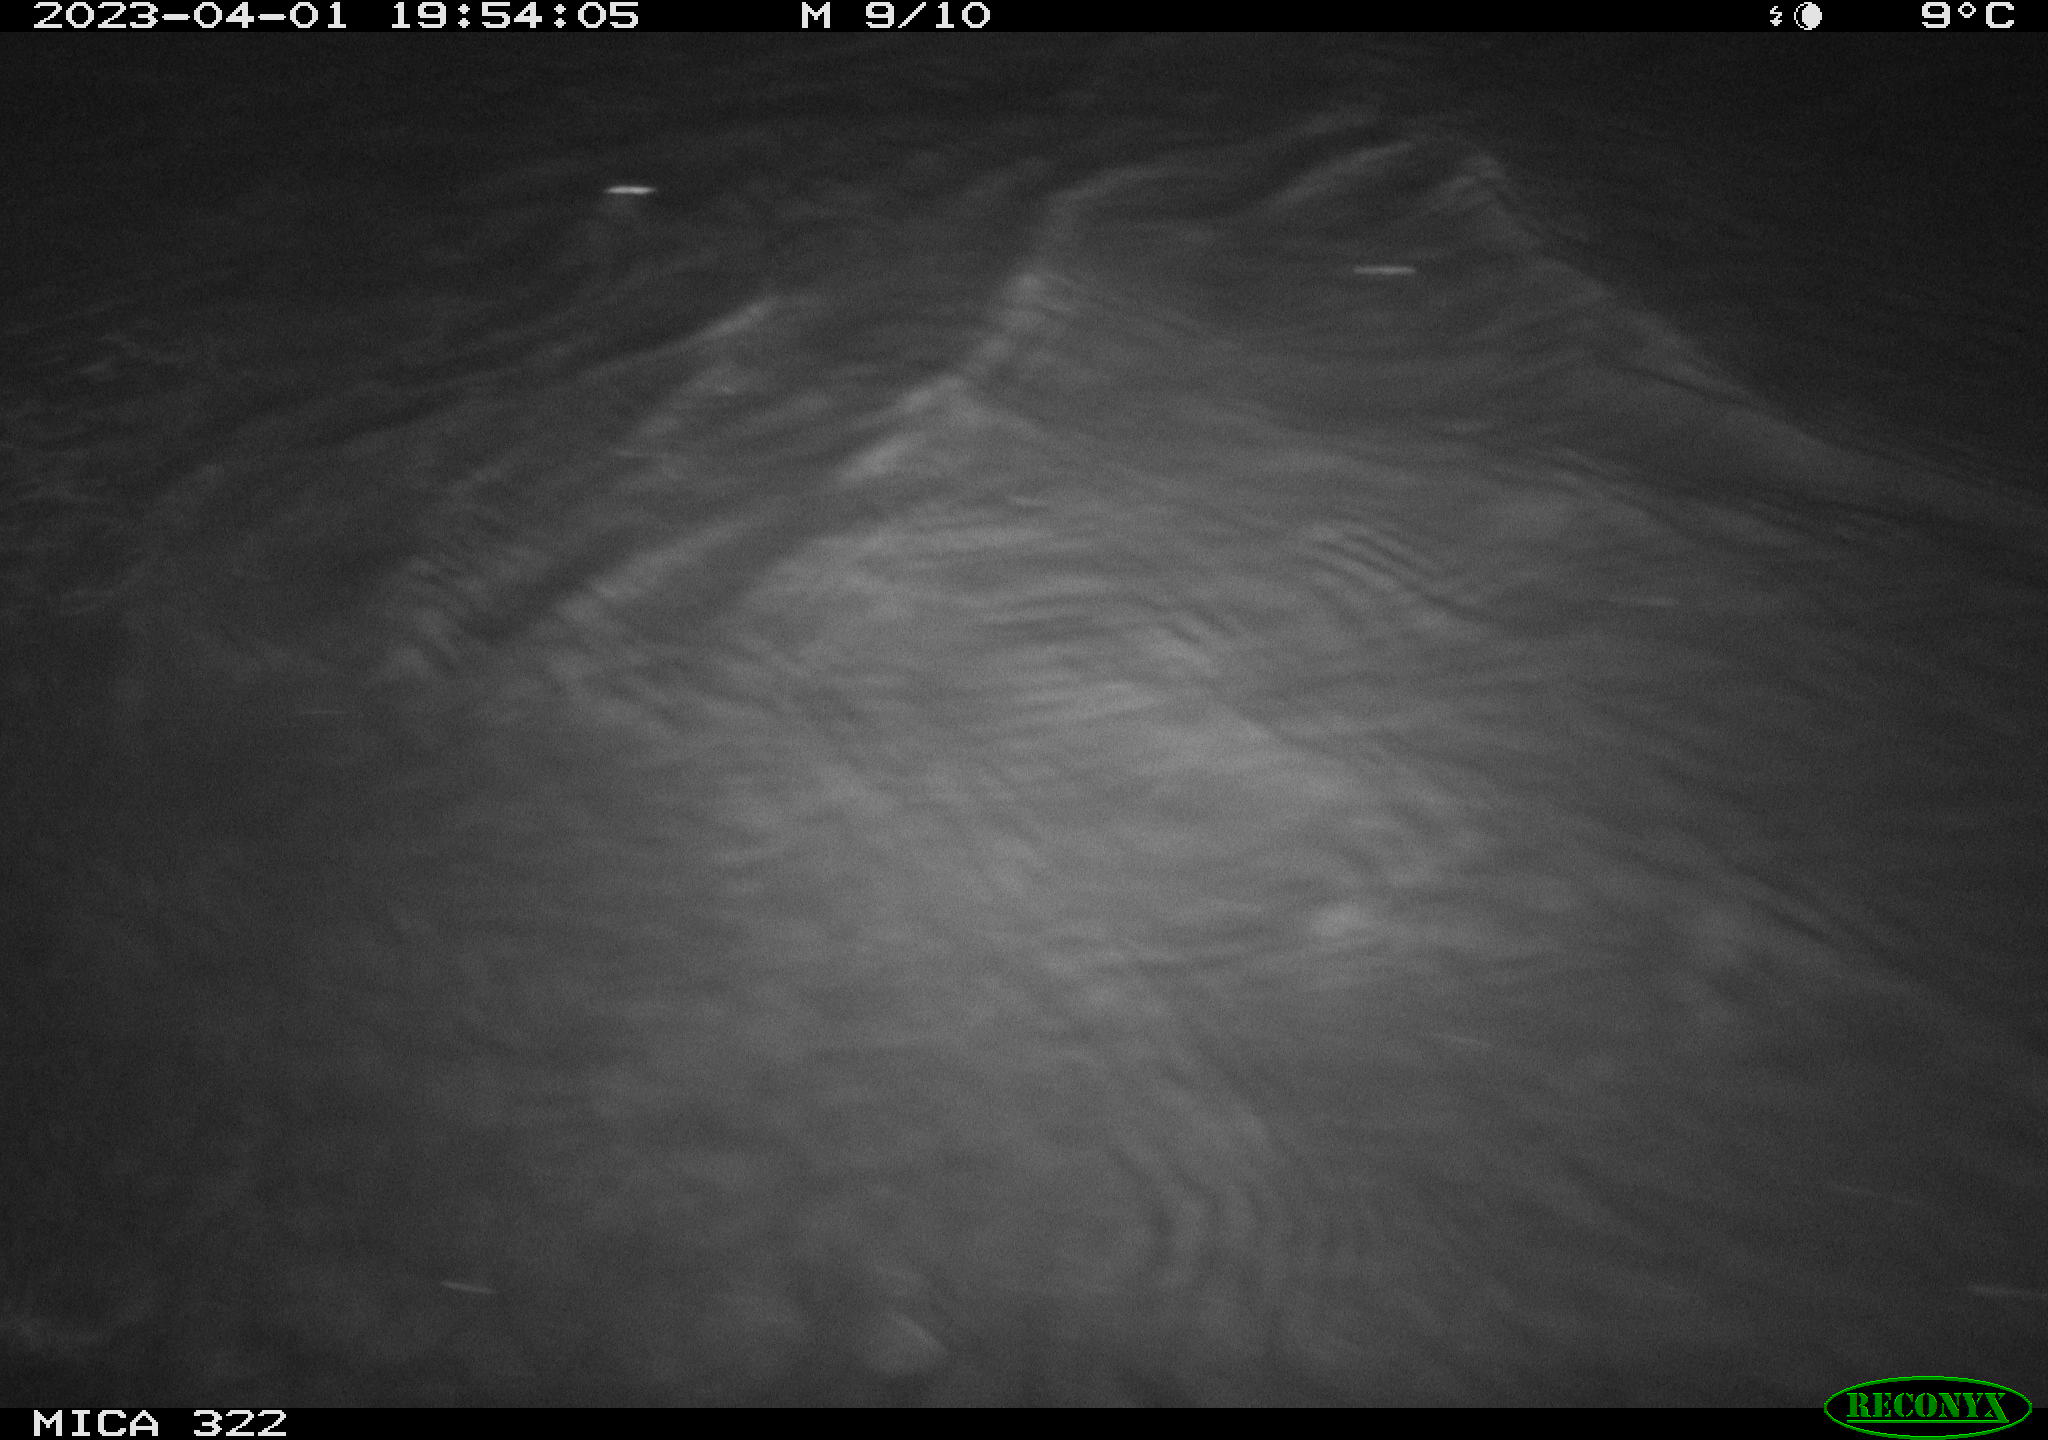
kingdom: Animalia
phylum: Chordata
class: Aves
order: Anseriformes
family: Anatidae
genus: Anas
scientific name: Anas
